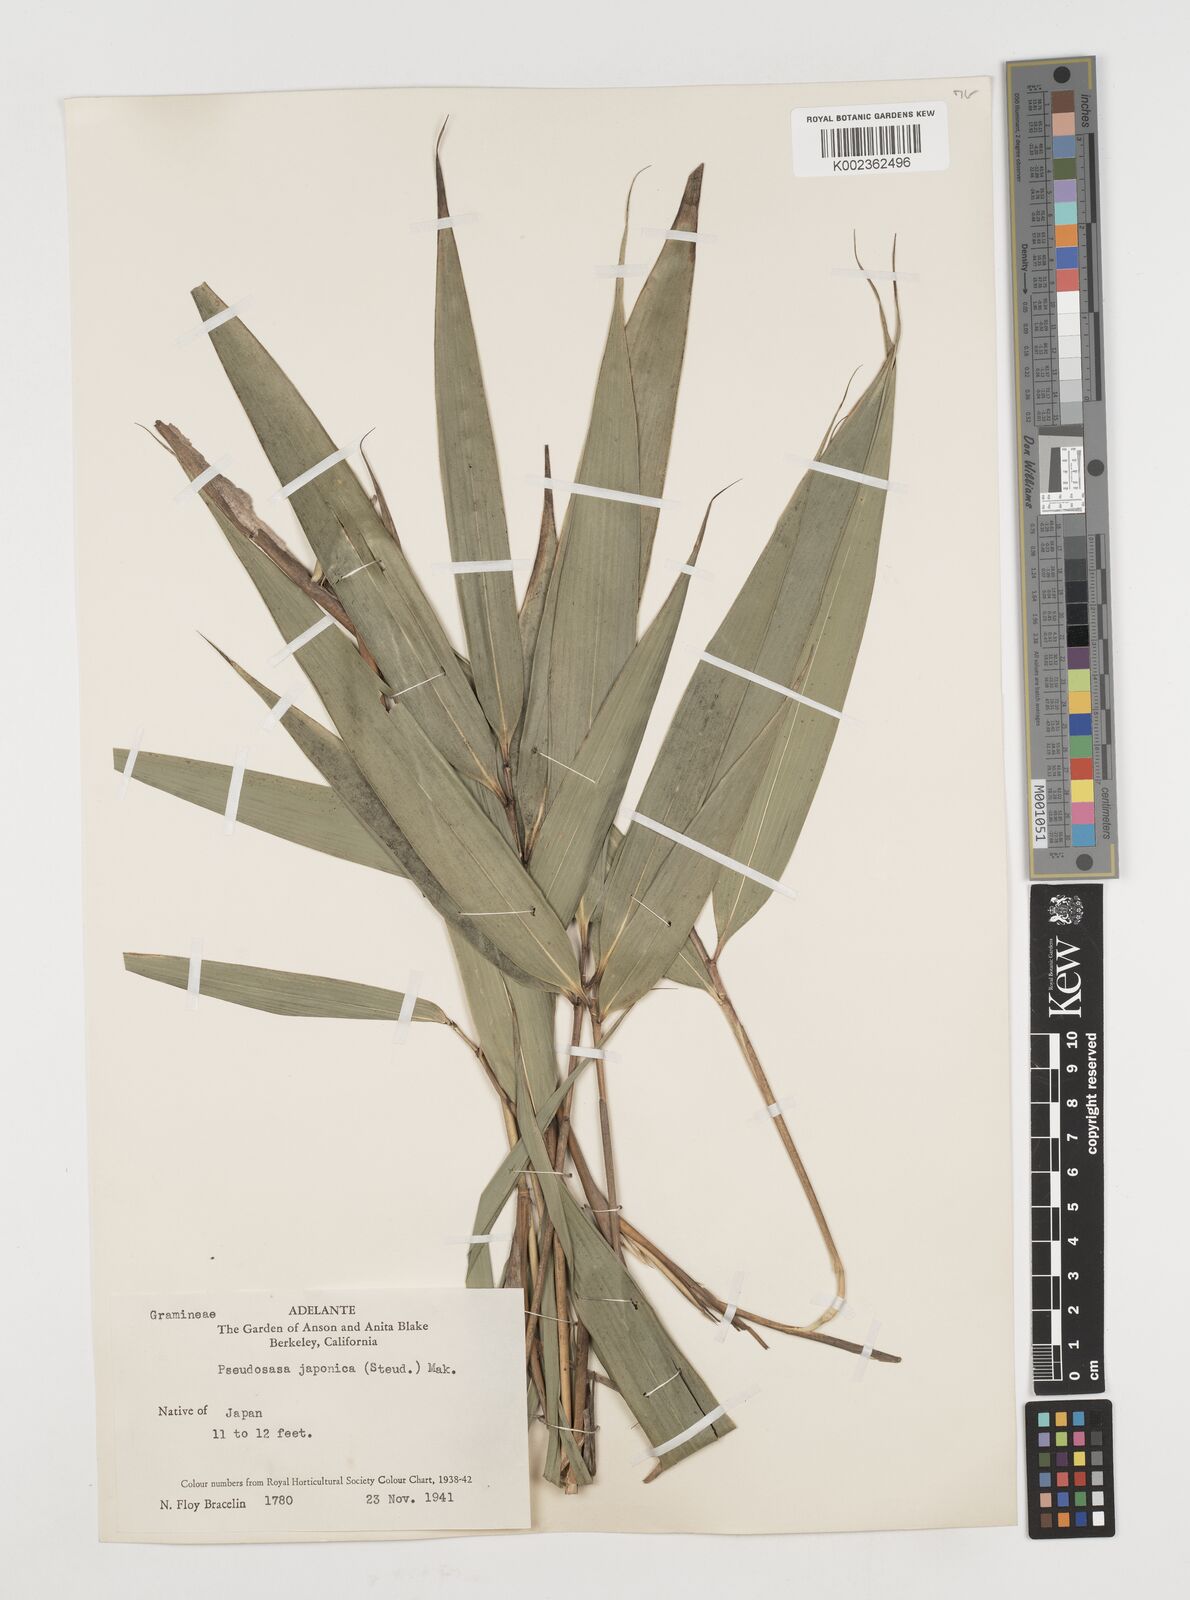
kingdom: Plantae
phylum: Tracheophyta
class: Liliopsida
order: Poales
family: Poaceae
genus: Pseudosasa
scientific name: Pseudosasa japonica
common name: Arrow bamboo
